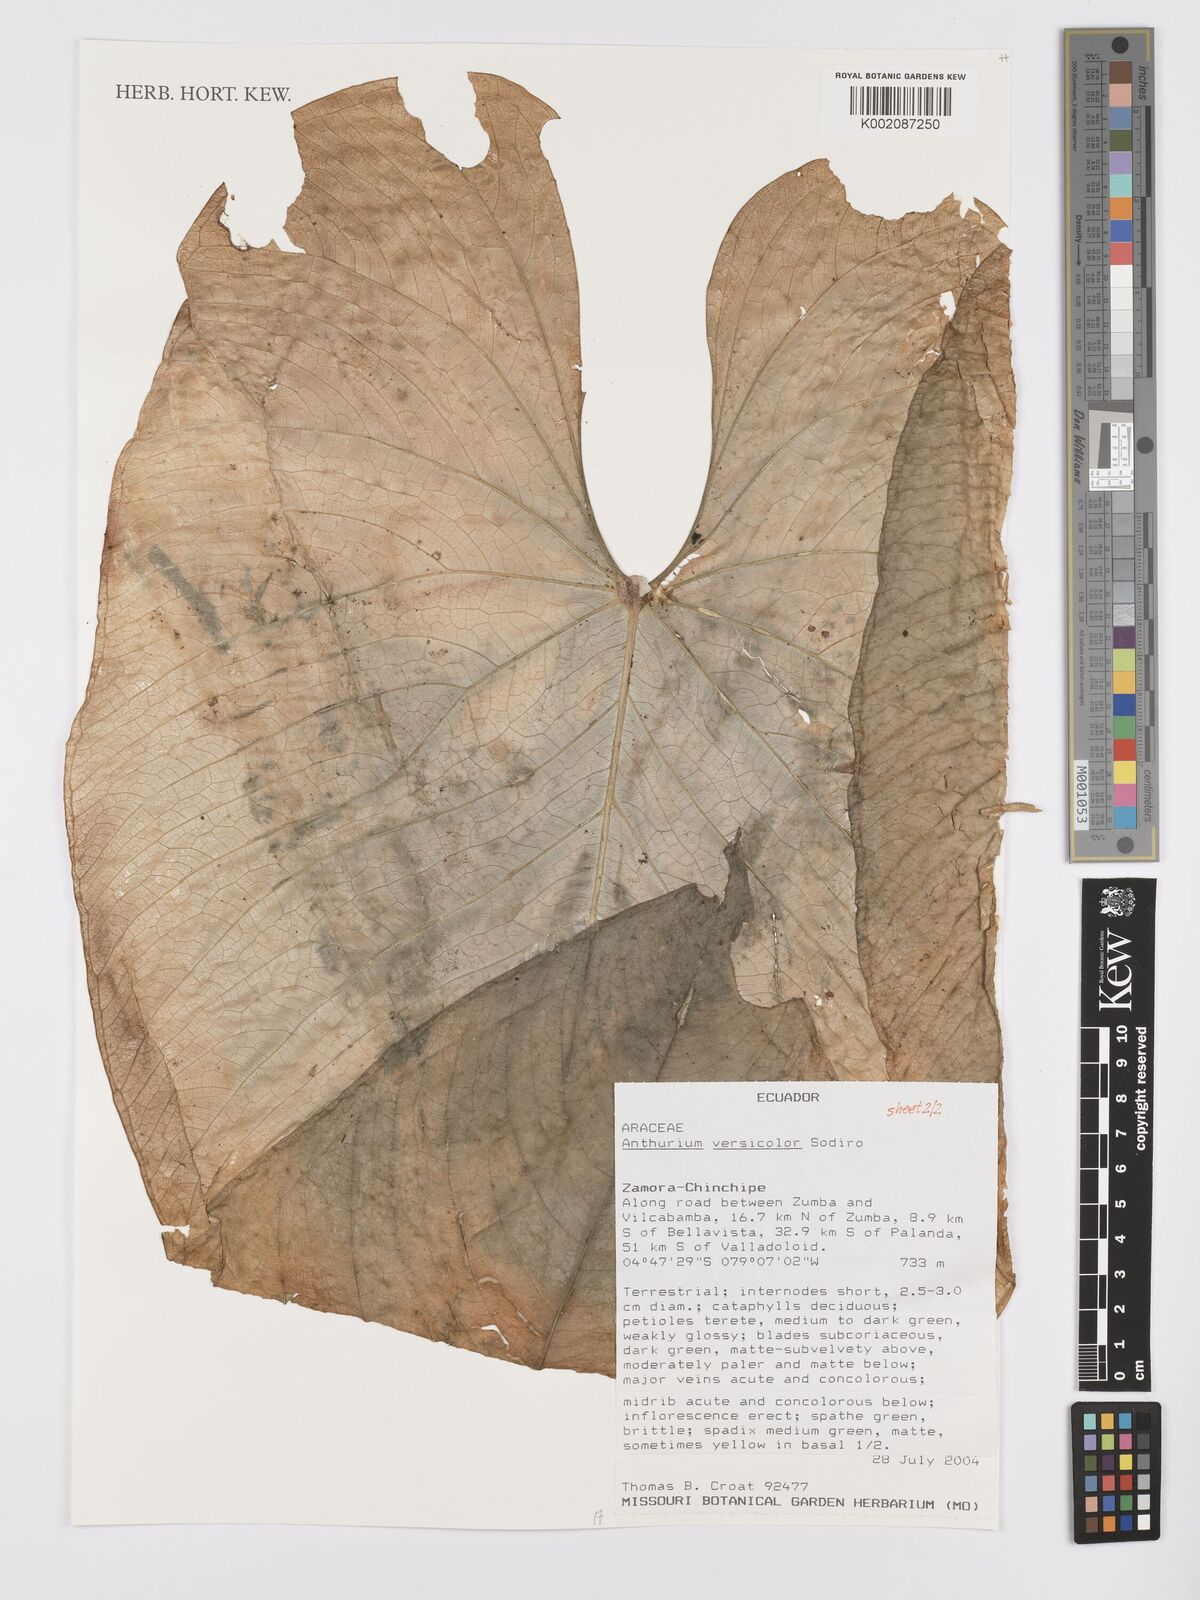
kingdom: Plantae
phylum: Tracheophyta
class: Liliopsida
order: Alismatales
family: Araceae
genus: Anthurium
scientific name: Anthurium versicolor
